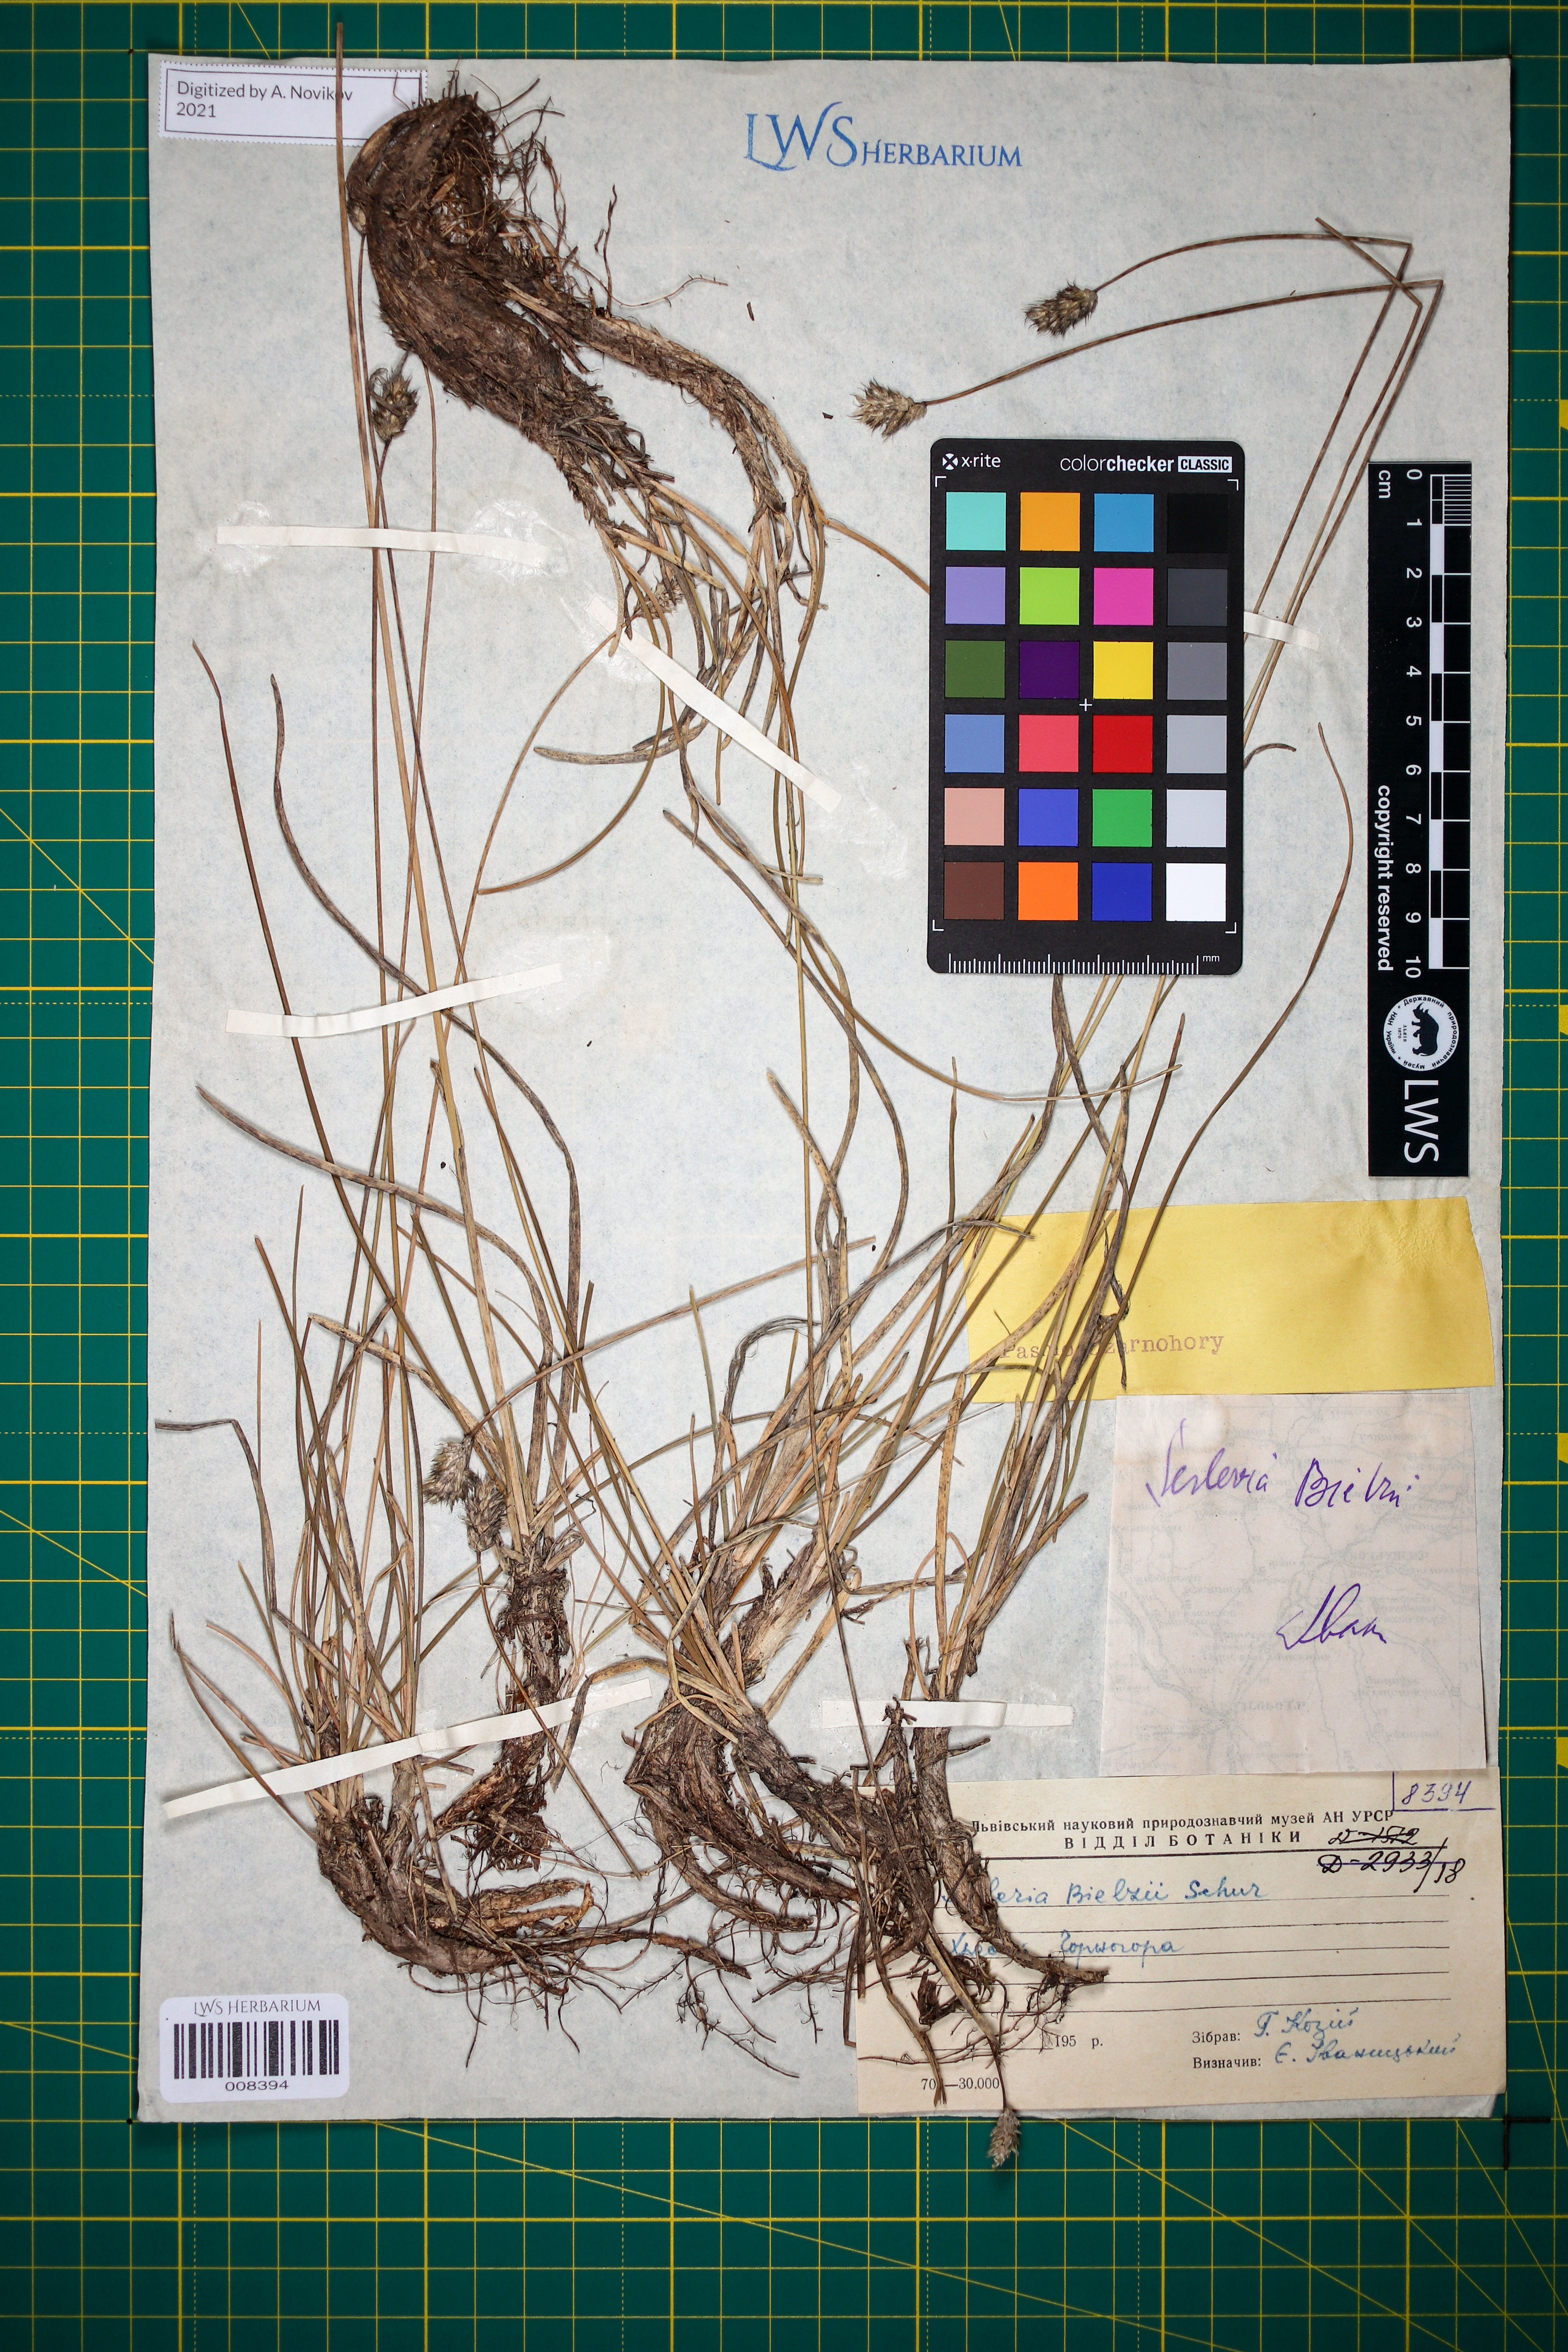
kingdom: Plantae
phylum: Tracheophyta
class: Liliopsida
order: Poales
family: Poaceae
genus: Sesleria
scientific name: Sesleria bielzii
